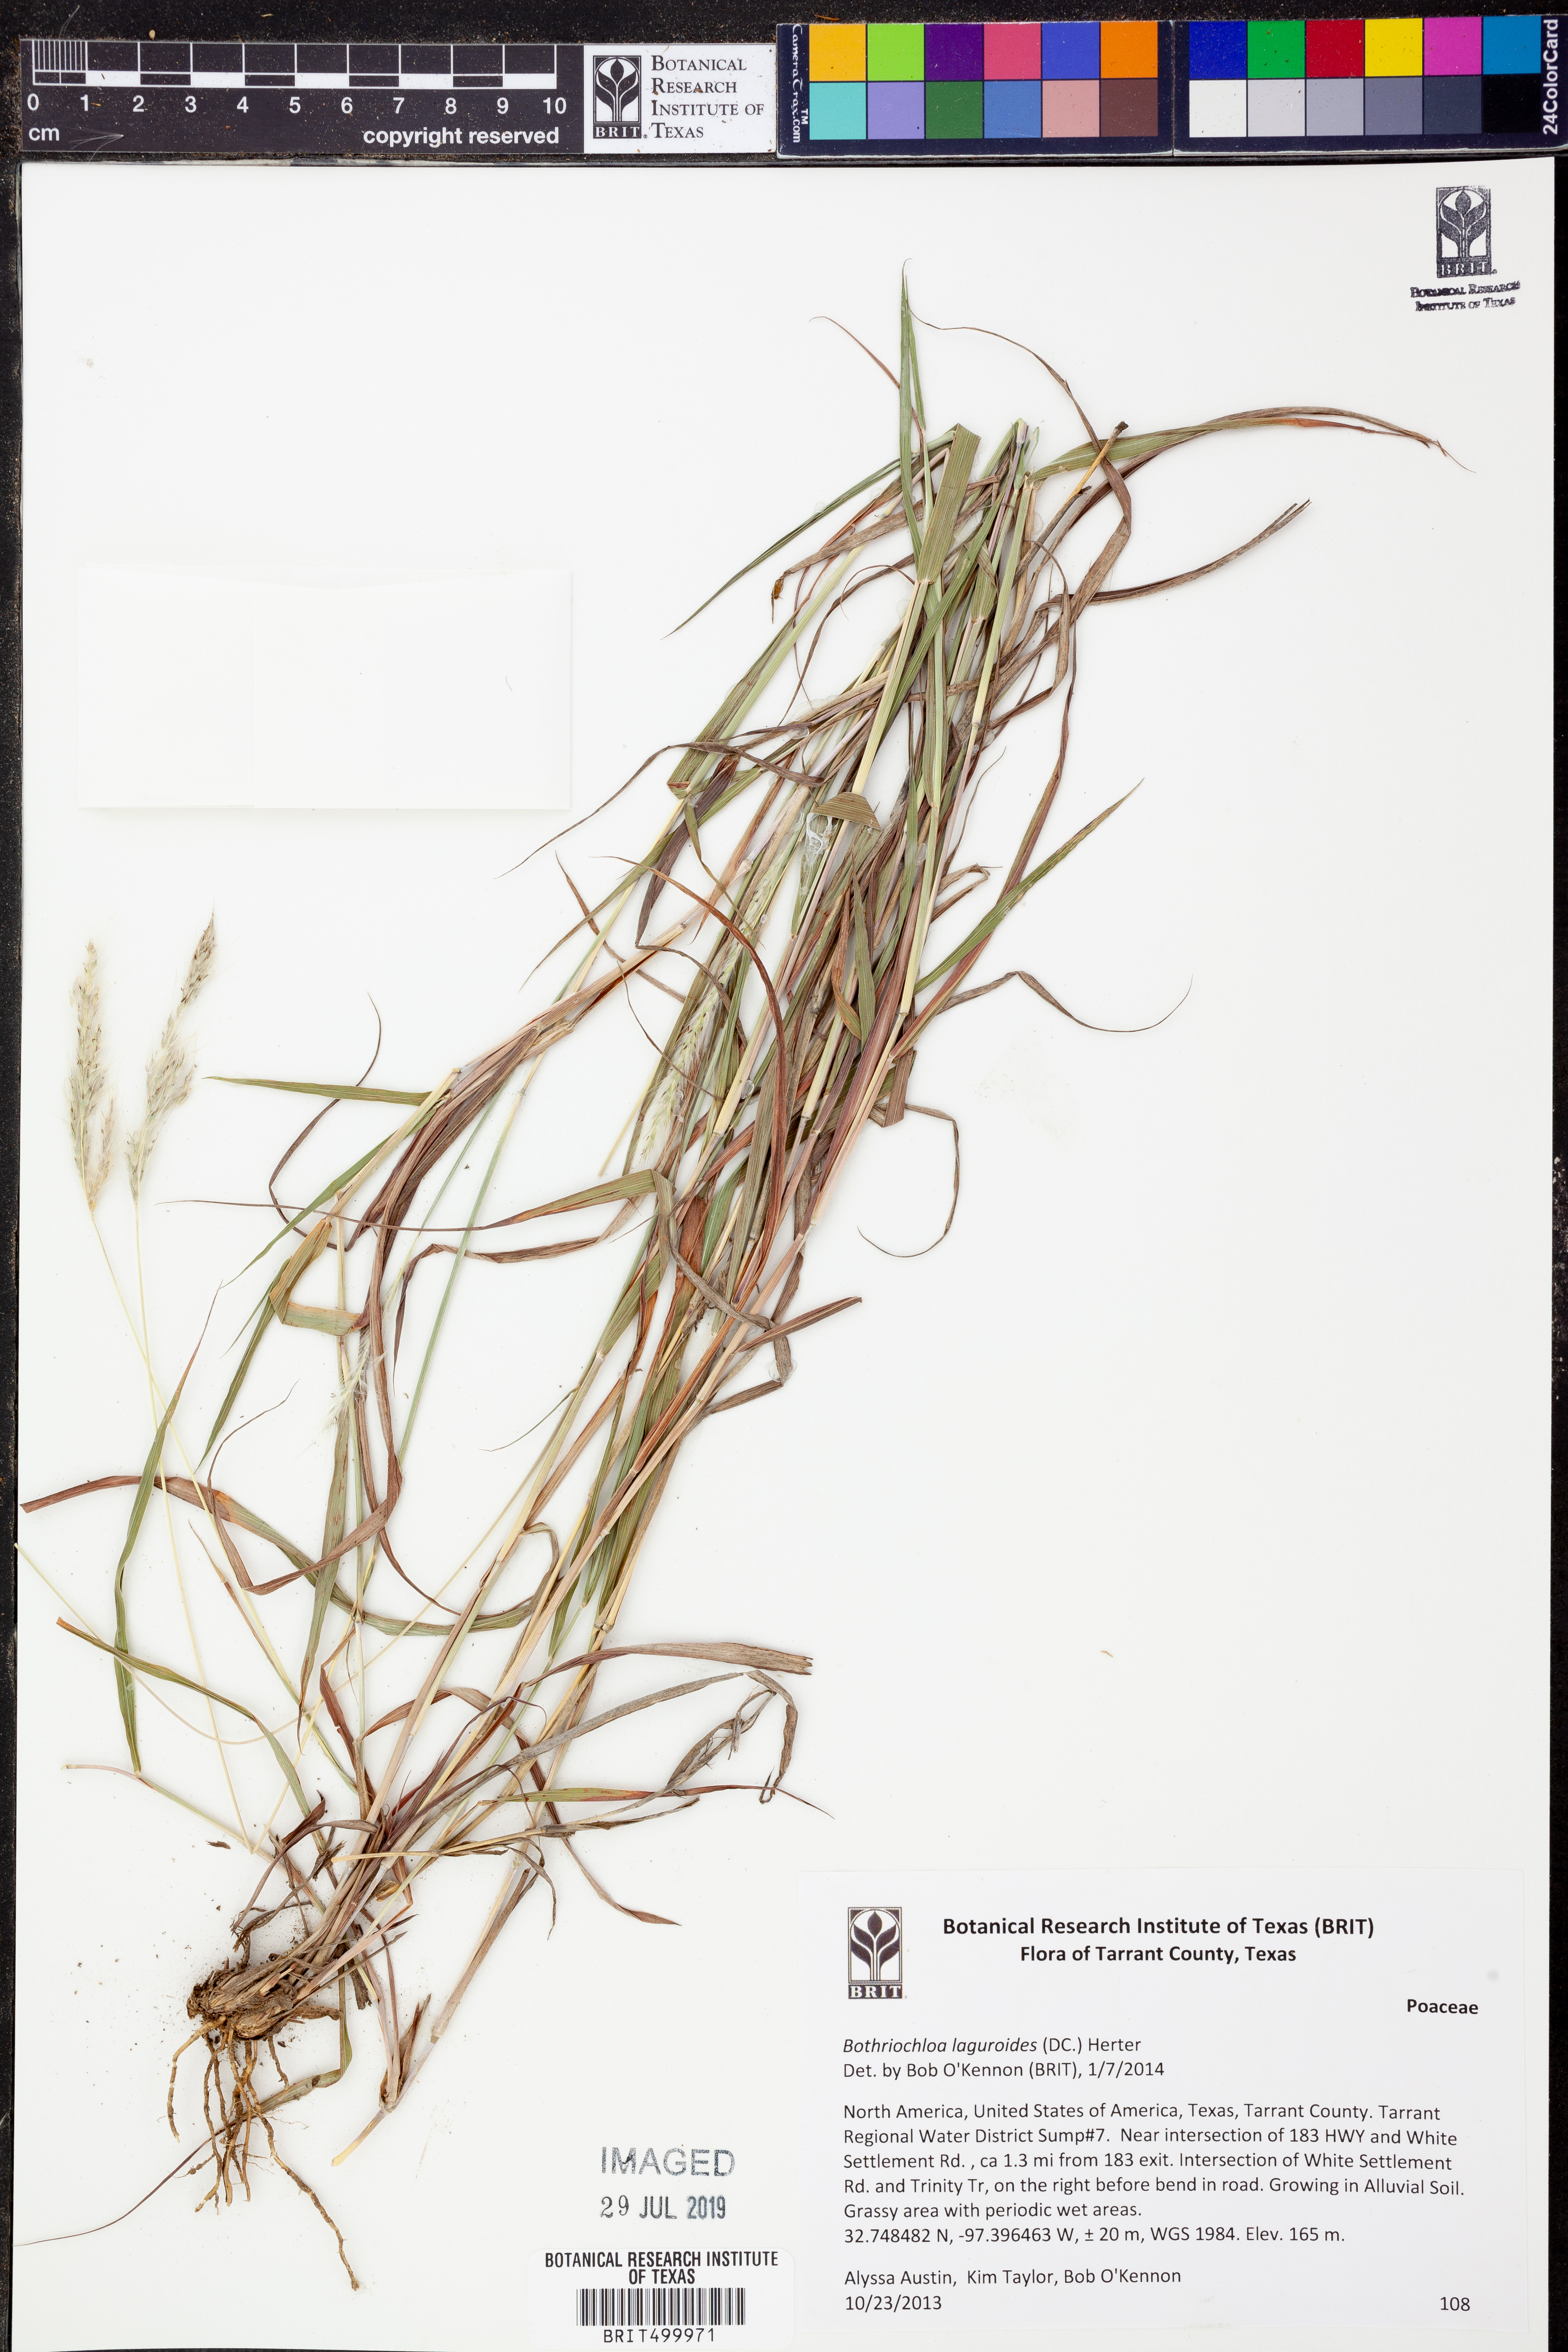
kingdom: Plantae
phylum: Tracheophyta
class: Liliopsida
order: Poales
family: Poaceae
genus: Bothriochloa
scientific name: Bothriochloa laguroides
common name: Silver bluestem
